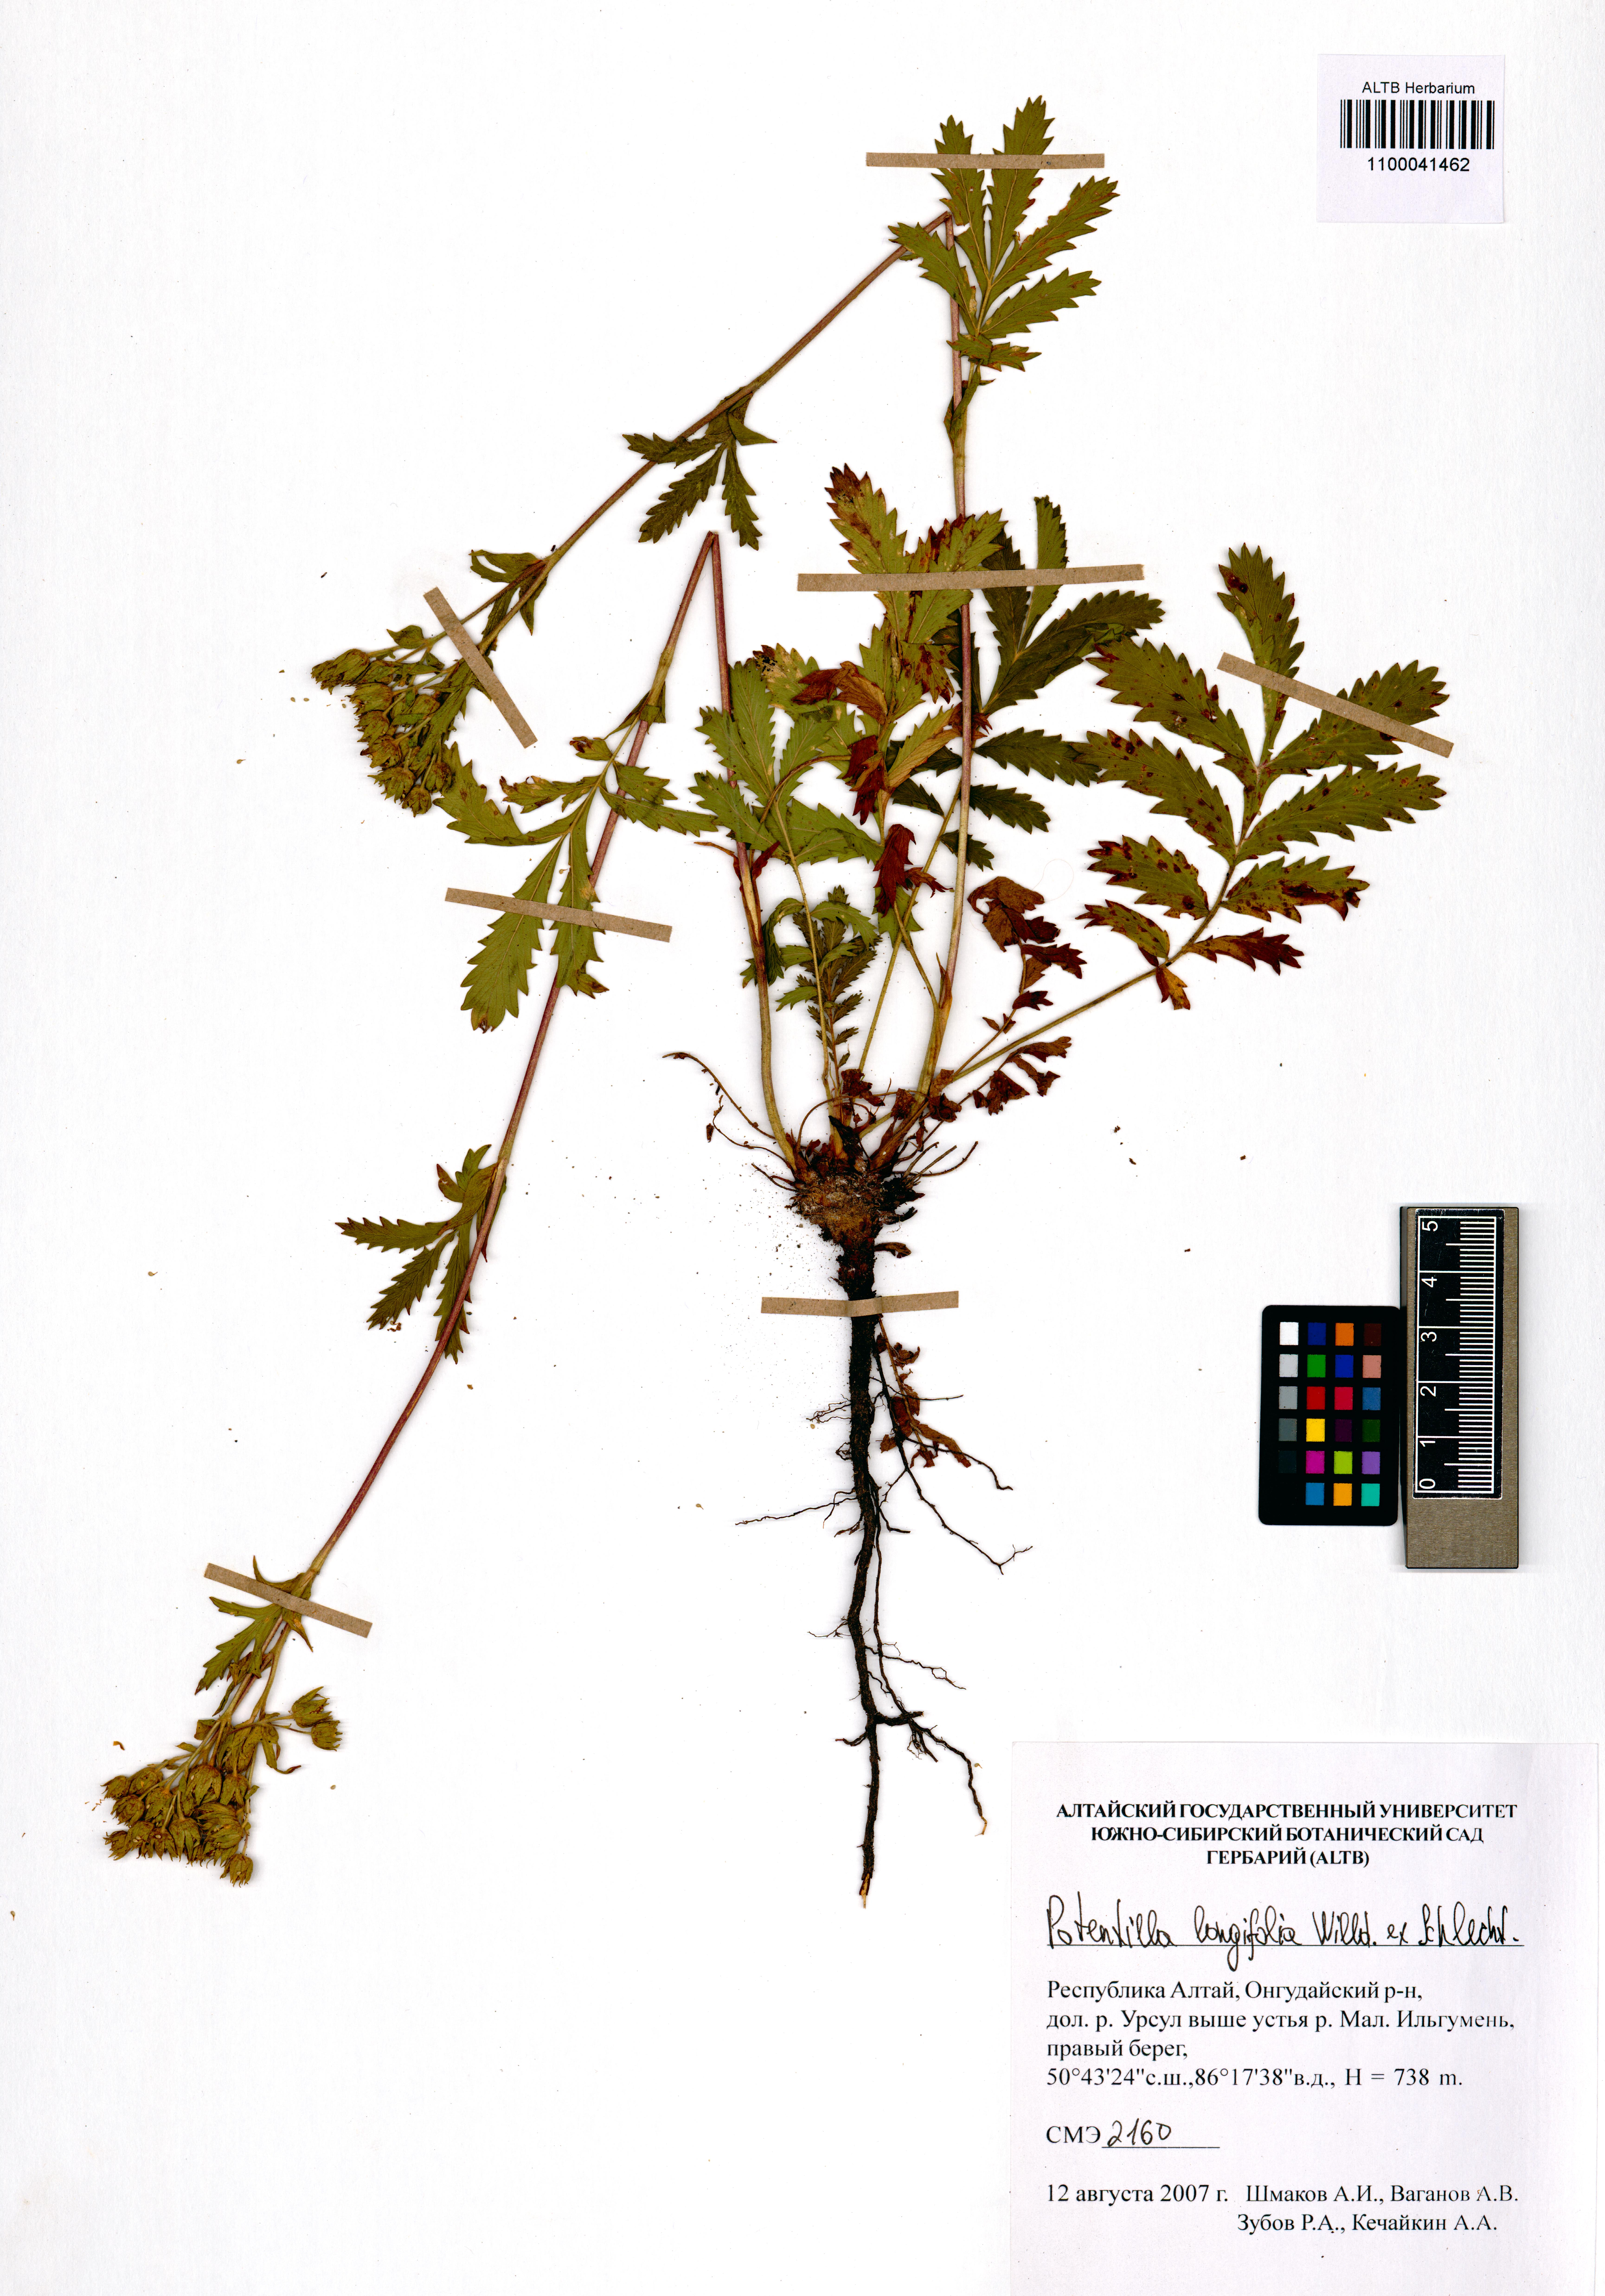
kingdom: Plantae
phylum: Tracheophyta
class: Magnoliopsida
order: Rosales
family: Rosaceae
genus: Potentilla
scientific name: Potentilla longifolia
